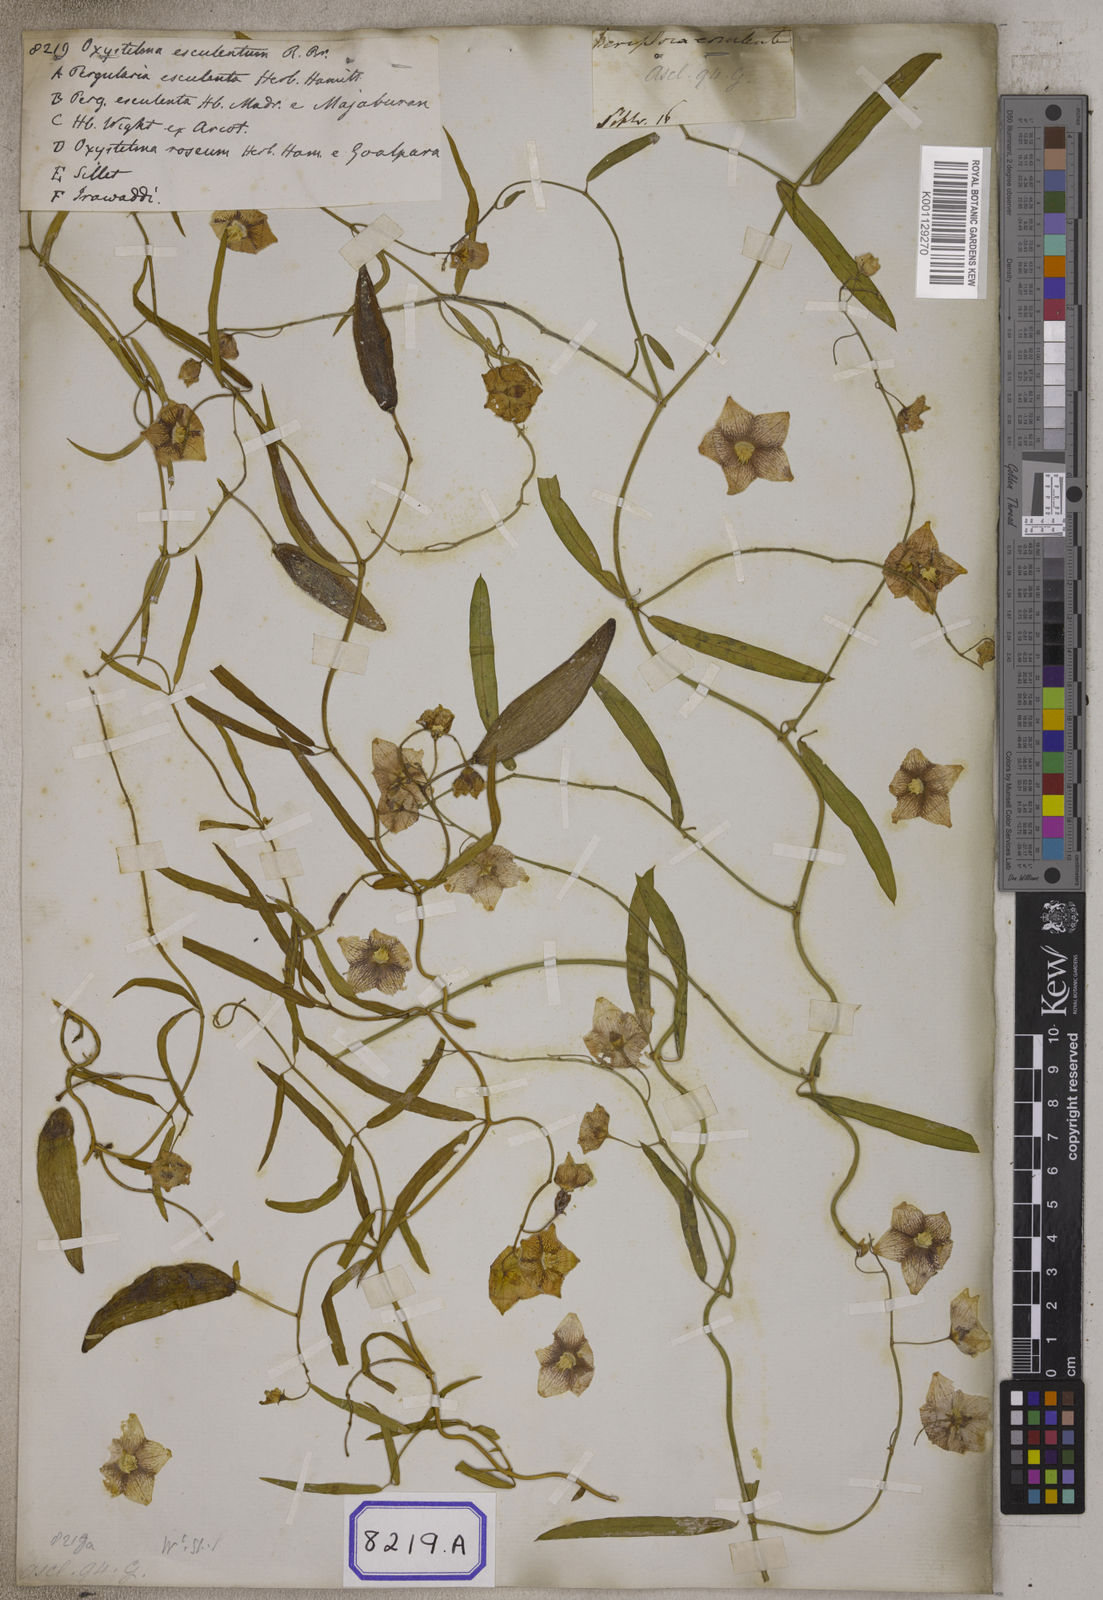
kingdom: Plantae
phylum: Tracheophyta
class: Magnoliopsida
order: Gentianales
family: Apocynaceae
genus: Oxystelma
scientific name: Oxystelma
